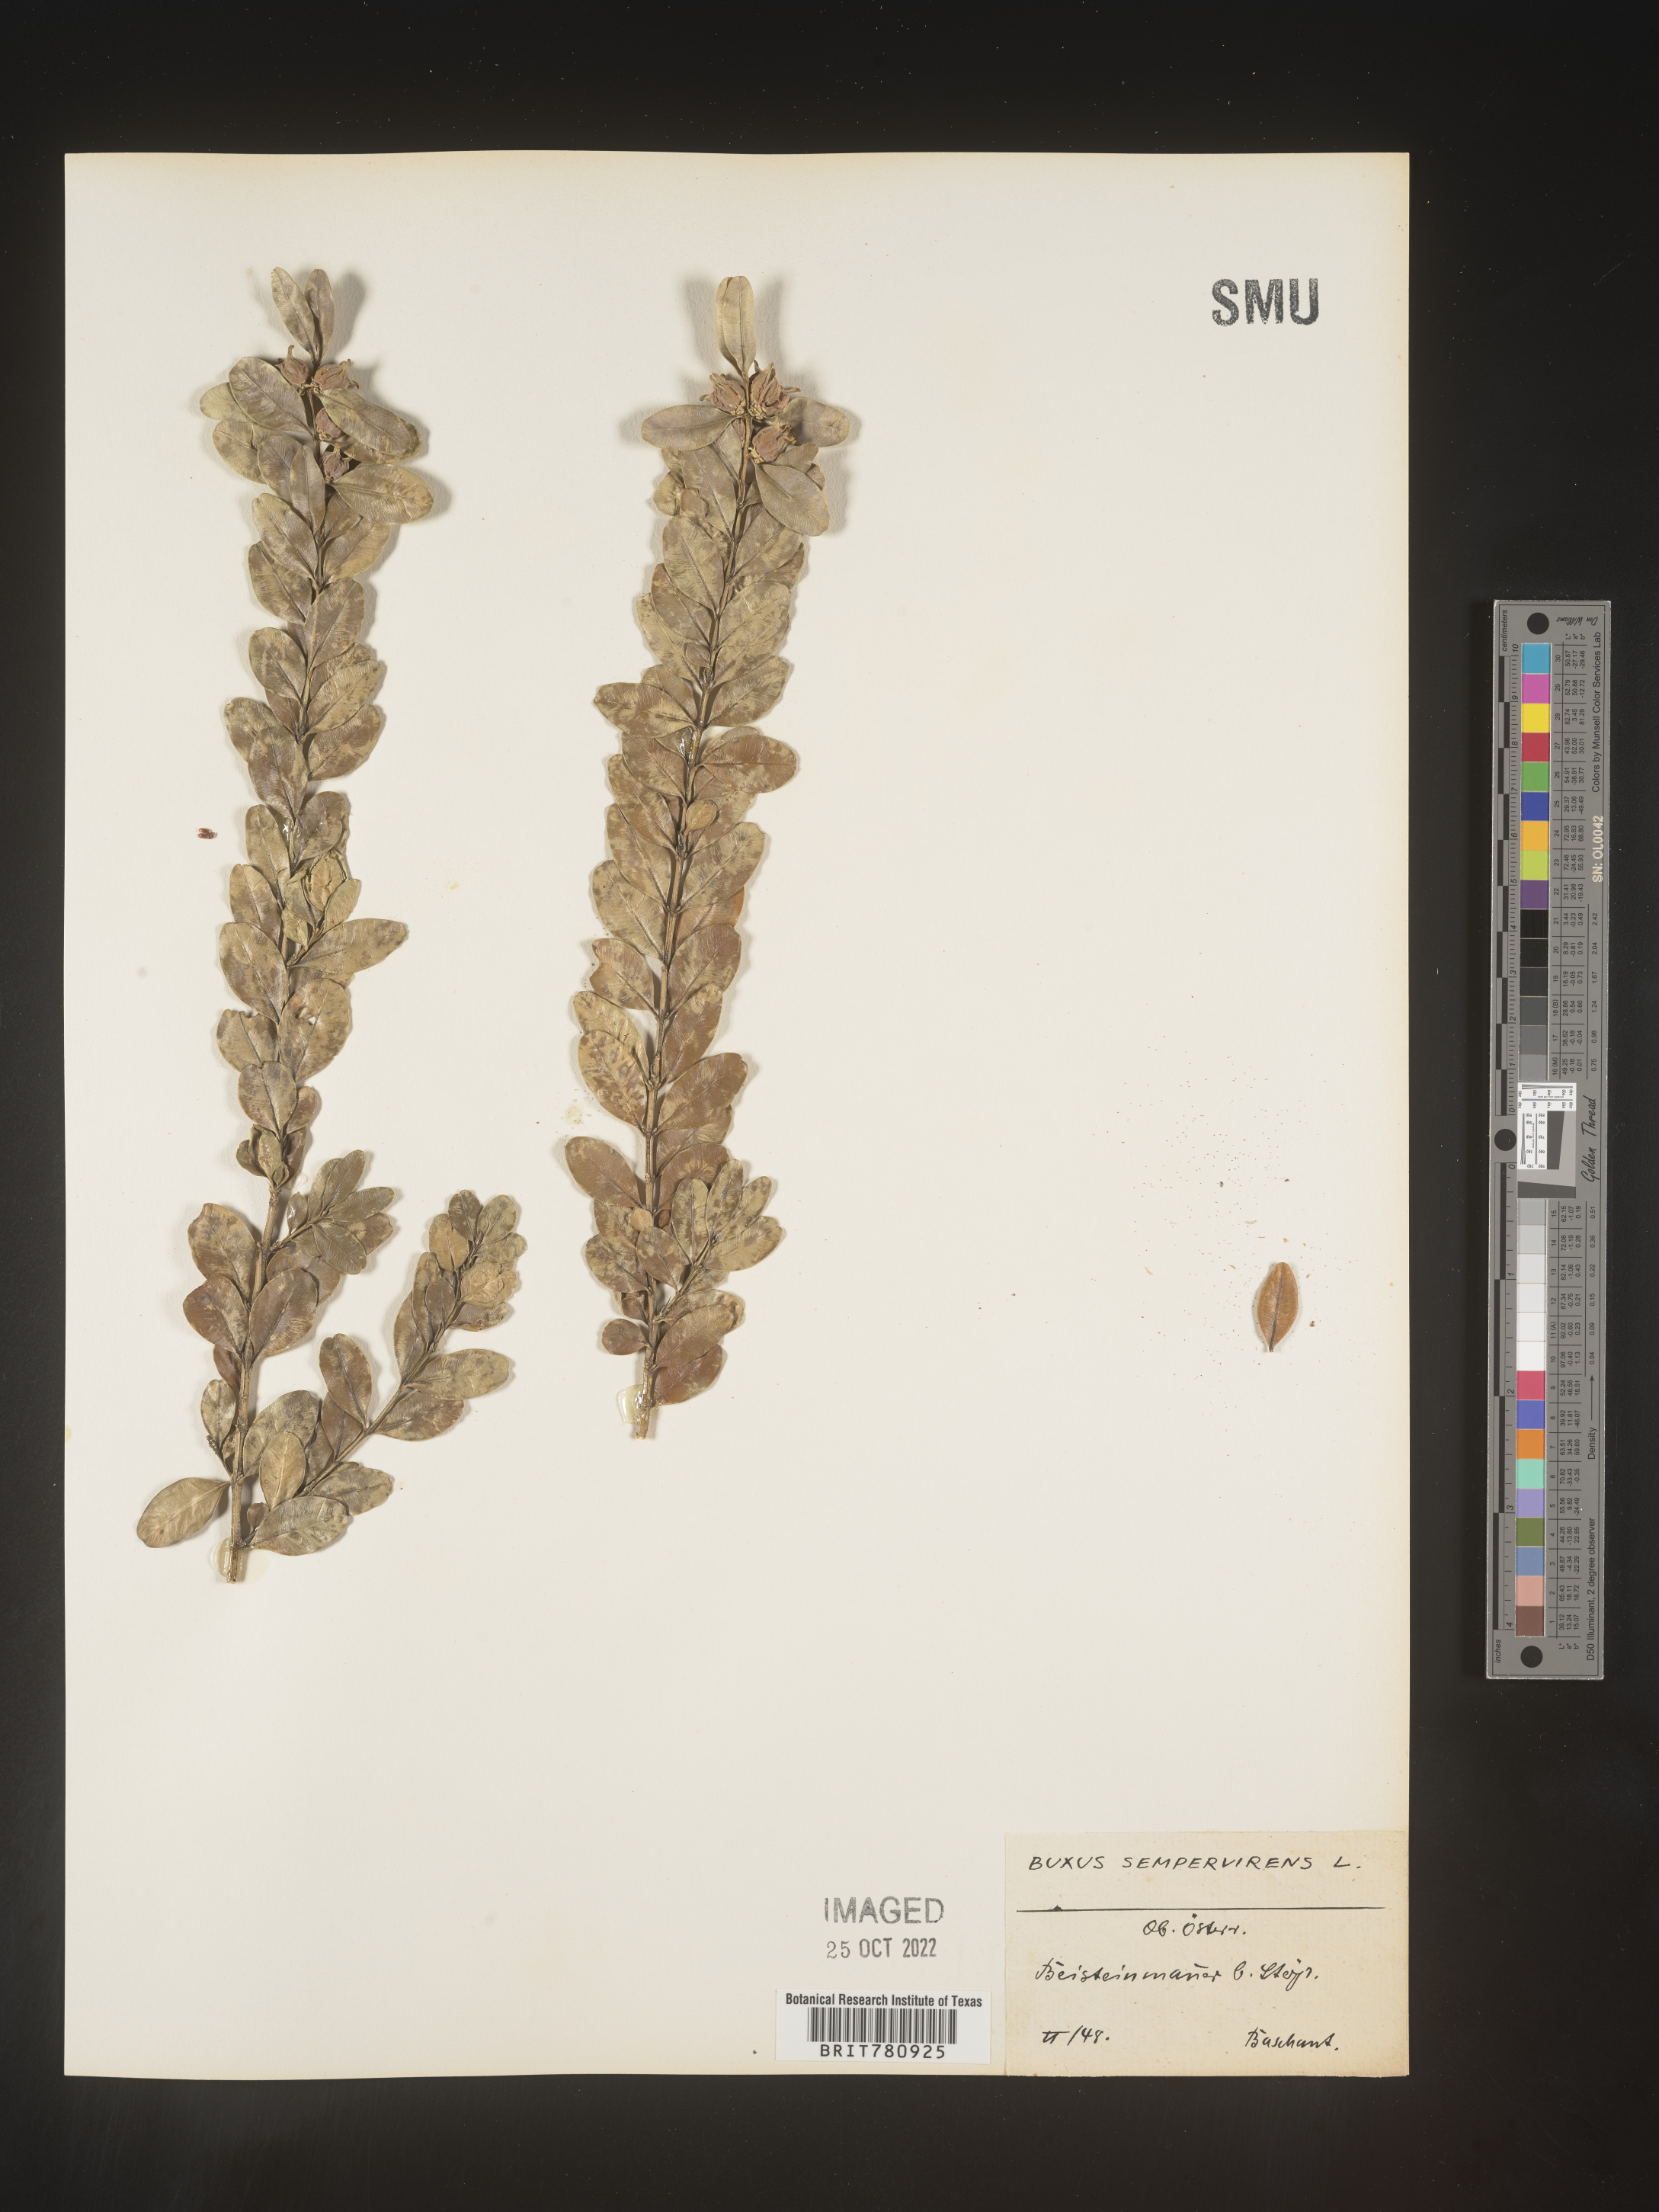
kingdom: Plantae
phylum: Tracheophyta
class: Magnoliopsida
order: Buxales
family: Buxaceae
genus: Buxus
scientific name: Buxus
